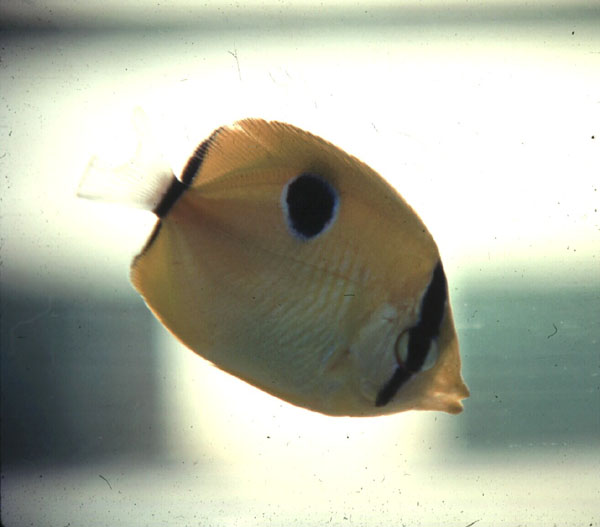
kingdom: Animalia
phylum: Chordata
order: Perciformes
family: Chaetodontidae
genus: Chaetodon
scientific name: Chaetodon unimaculatus
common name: Teardrop butterflyfish
